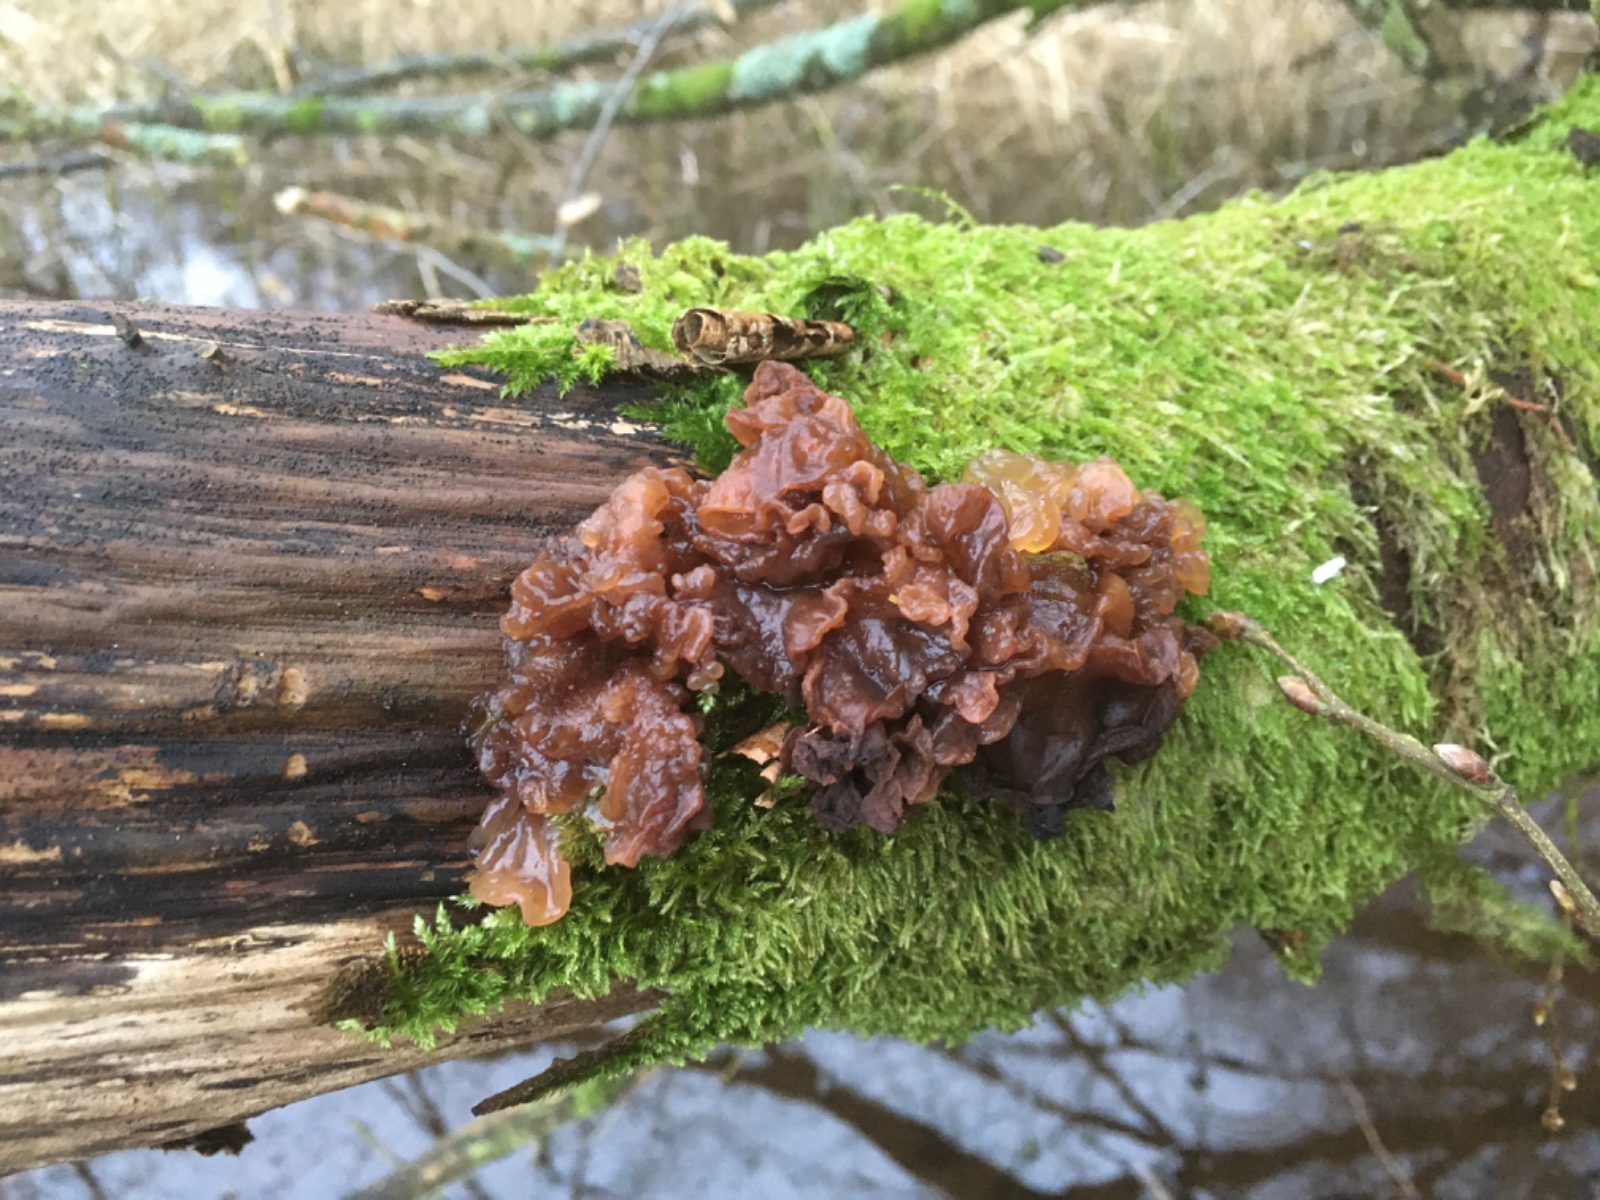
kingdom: Fungi
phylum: Basidiomycota
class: Tremellomycetes
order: Tremellales
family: Tremellaceae
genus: Phaeotremella
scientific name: Phaeotremella frondosa
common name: kæmpe-bævresvamp
